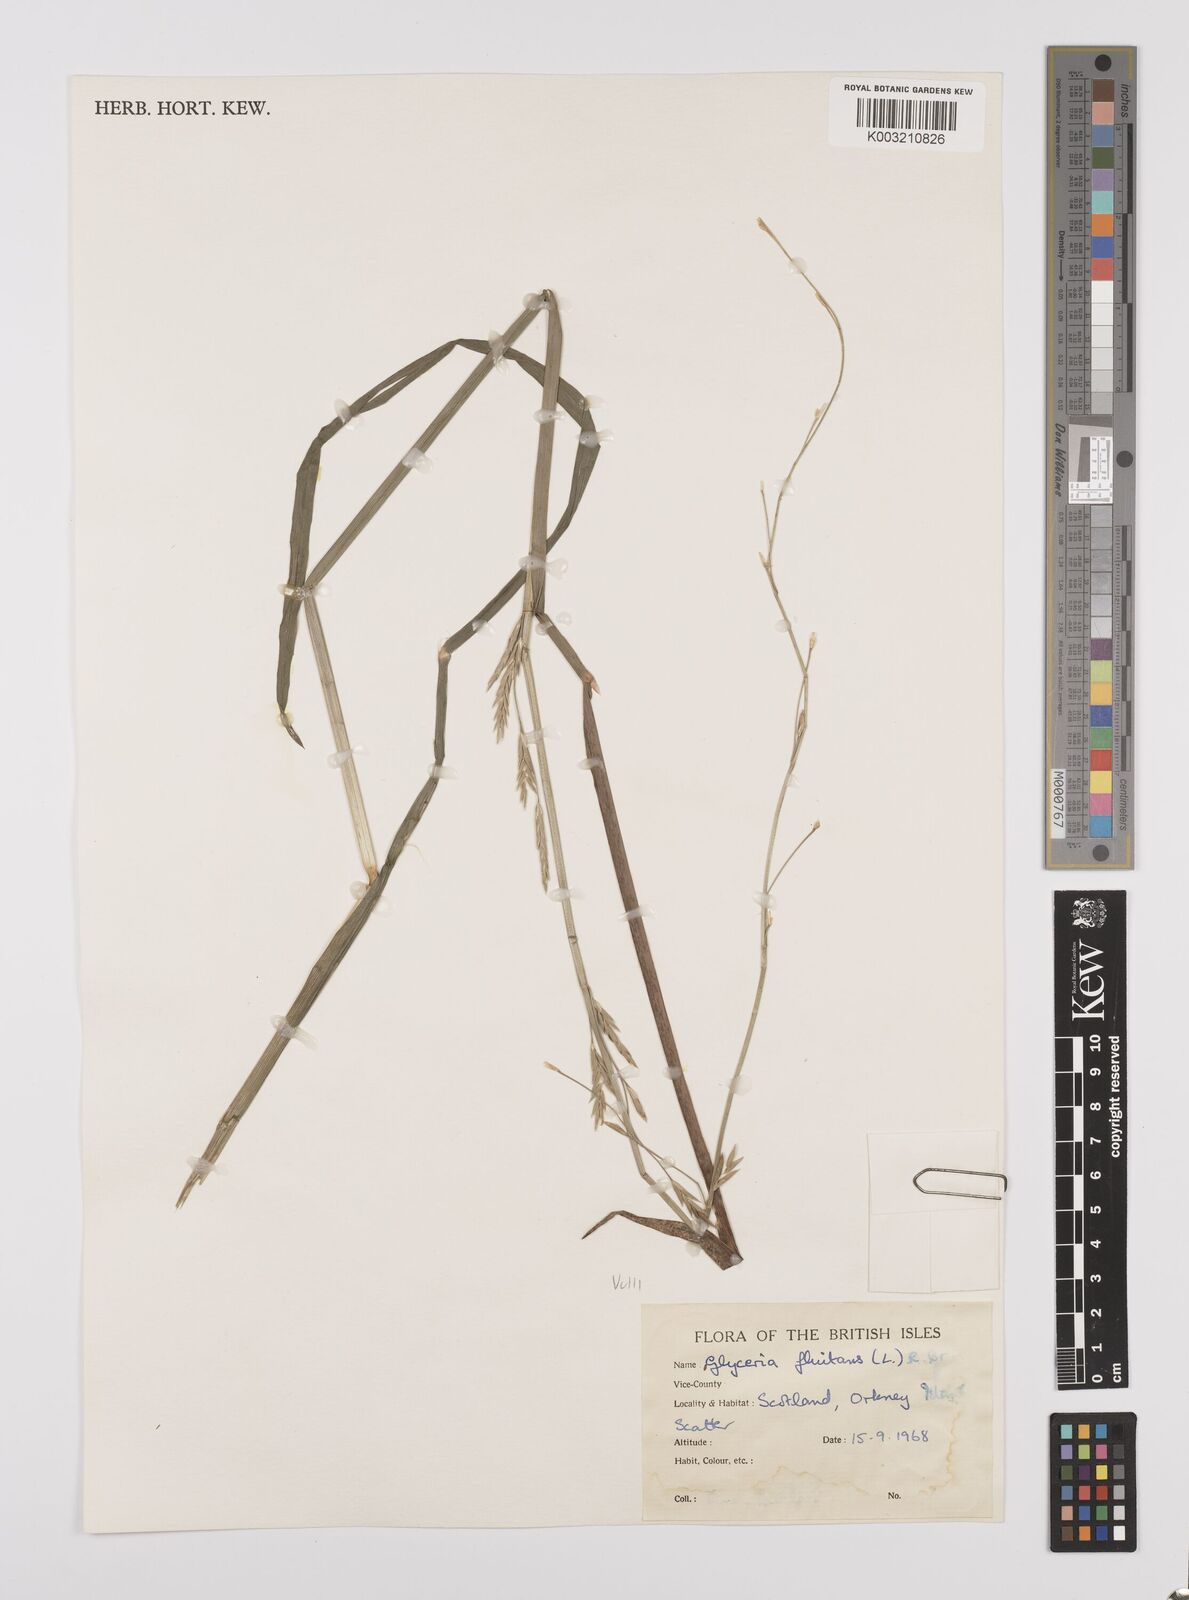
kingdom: Plantae
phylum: Tracheophyta
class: Liliopsida
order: Poales
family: Poaceae
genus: Glyceria
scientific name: Glyceria fluitans
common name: Floating sweet-grass
